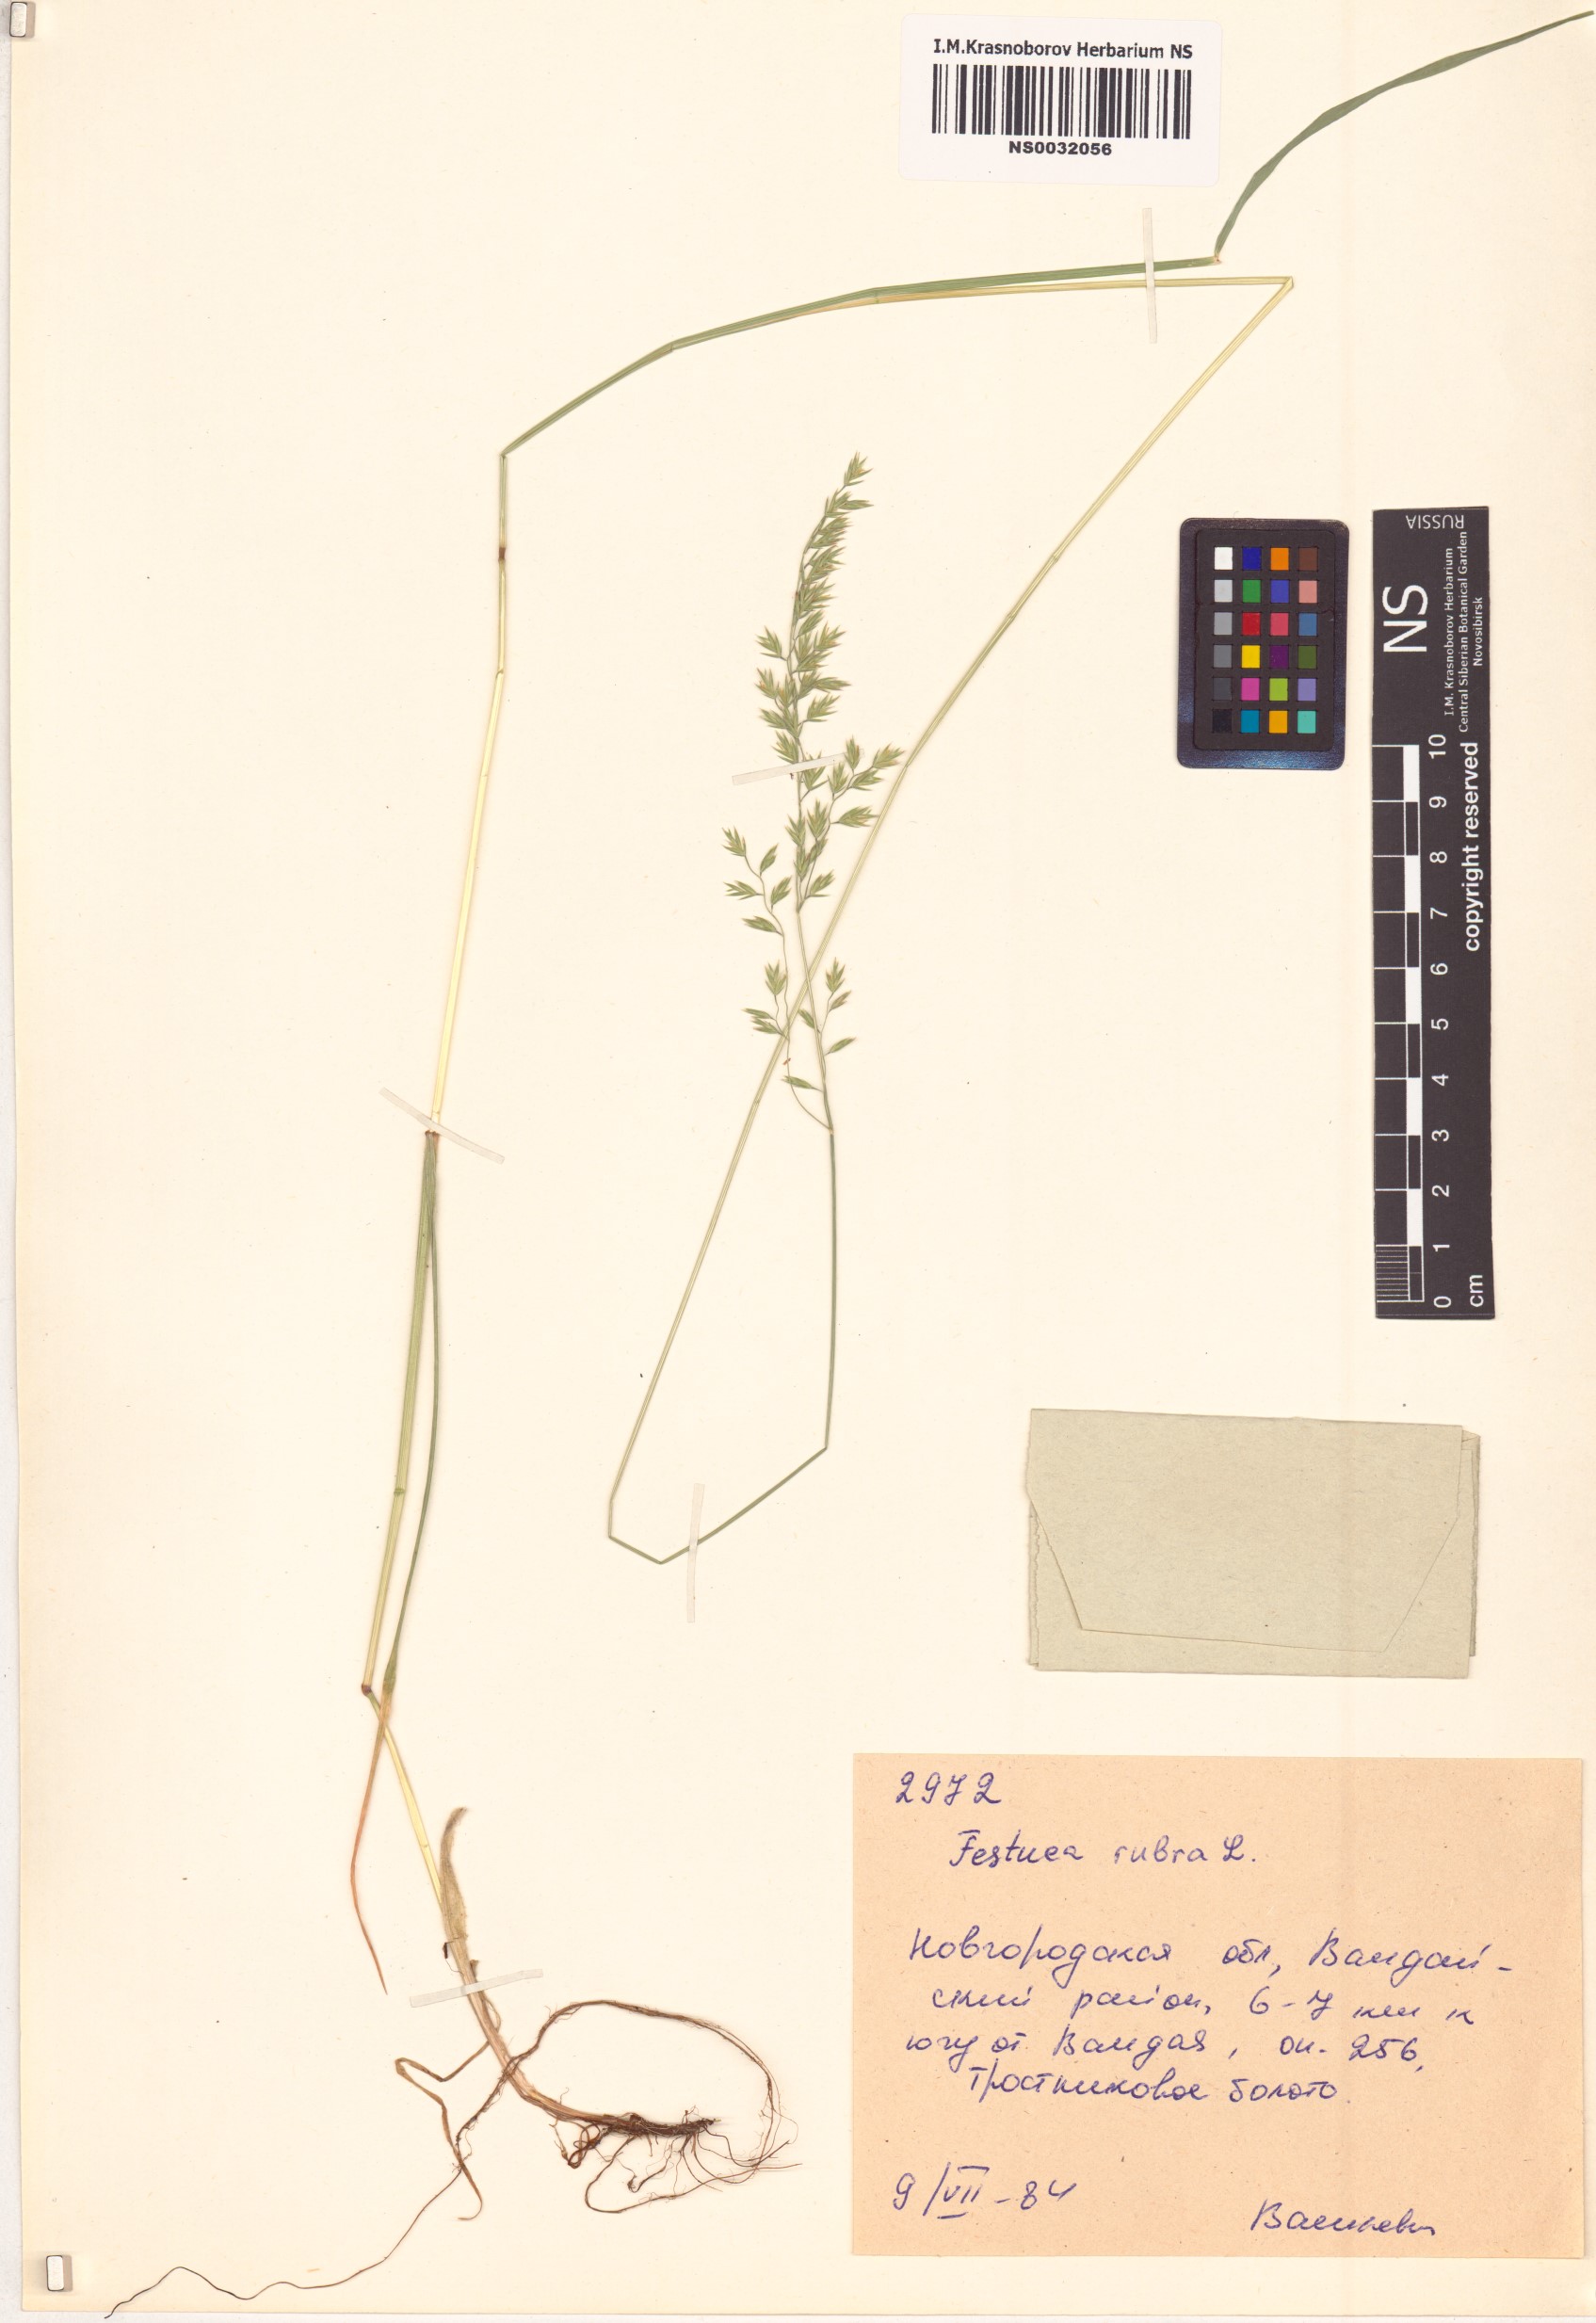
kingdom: Plantae
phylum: Tracheophyta
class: Liliopsida
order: Poales
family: Poaceae
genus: Festuca
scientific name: Festuca rubra
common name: Red fescue
